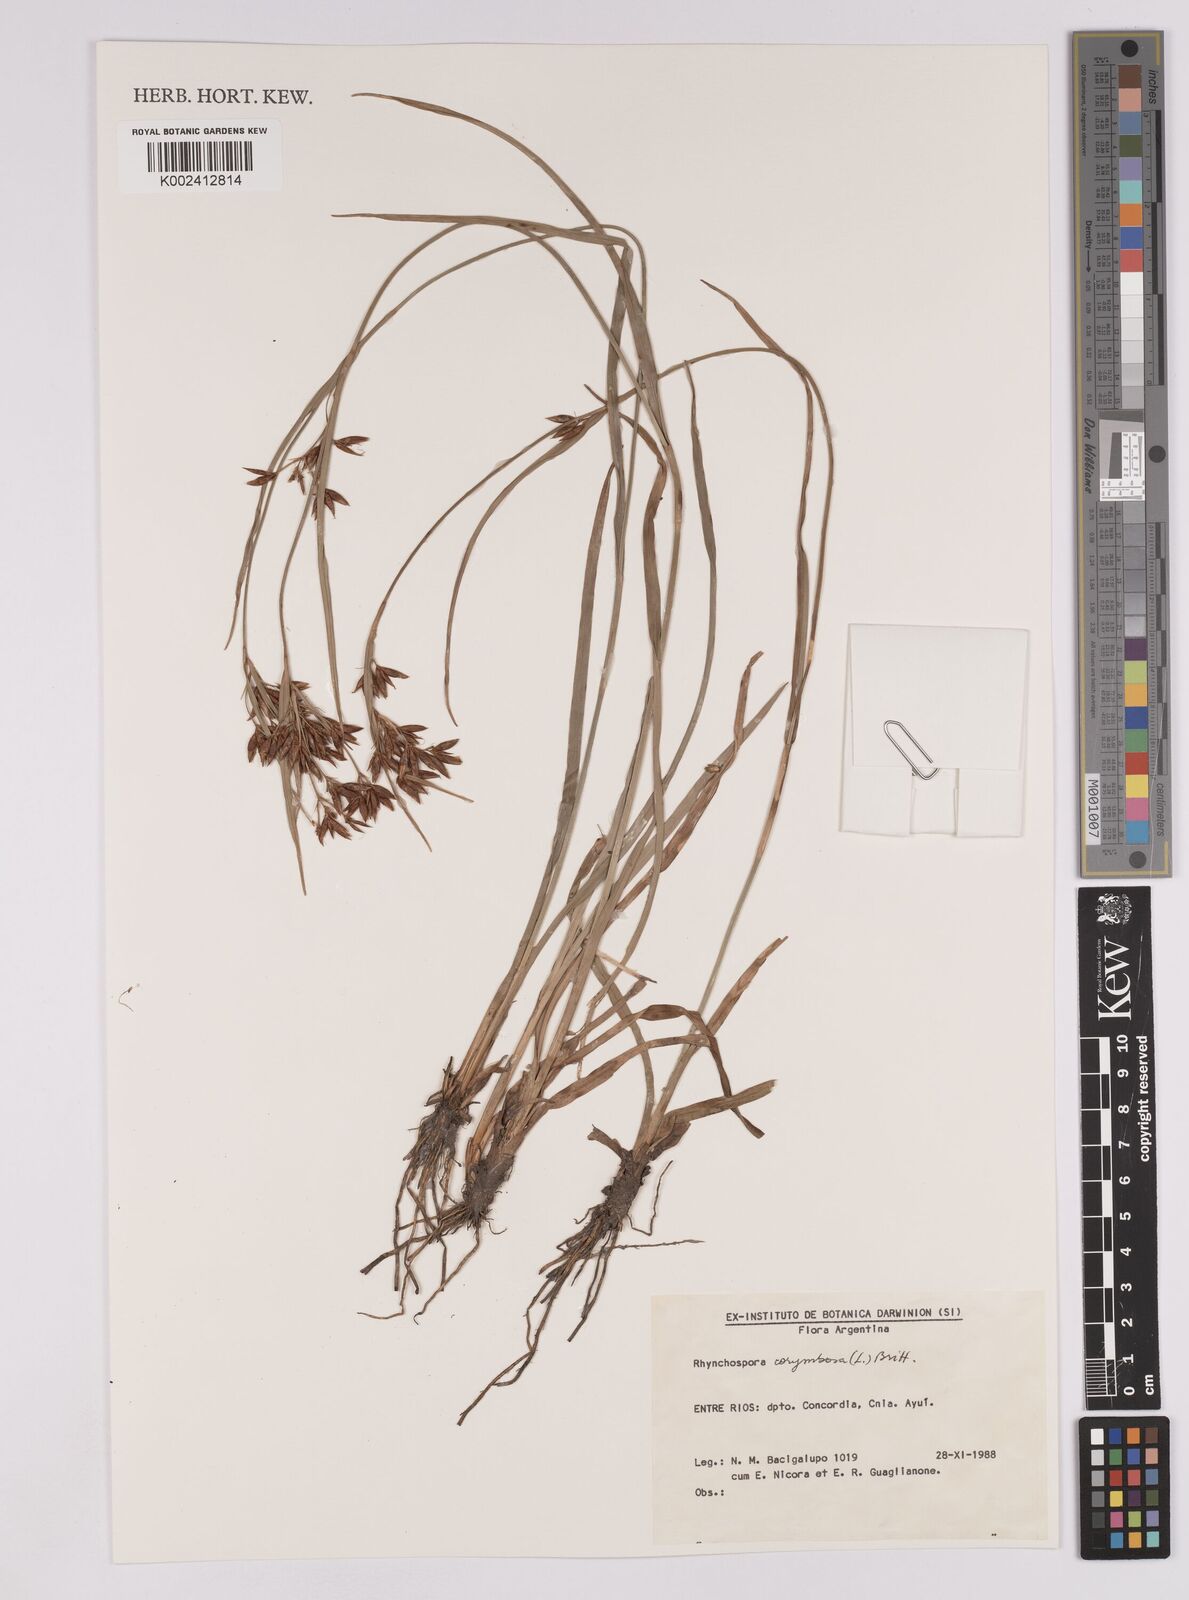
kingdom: Plantae
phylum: Tracheophyta
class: Liliopsida
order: Poales
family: Cyperaceae
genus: Rhynchospora
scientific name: Rhynchospora corymbosa
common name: Golden beak sedge
